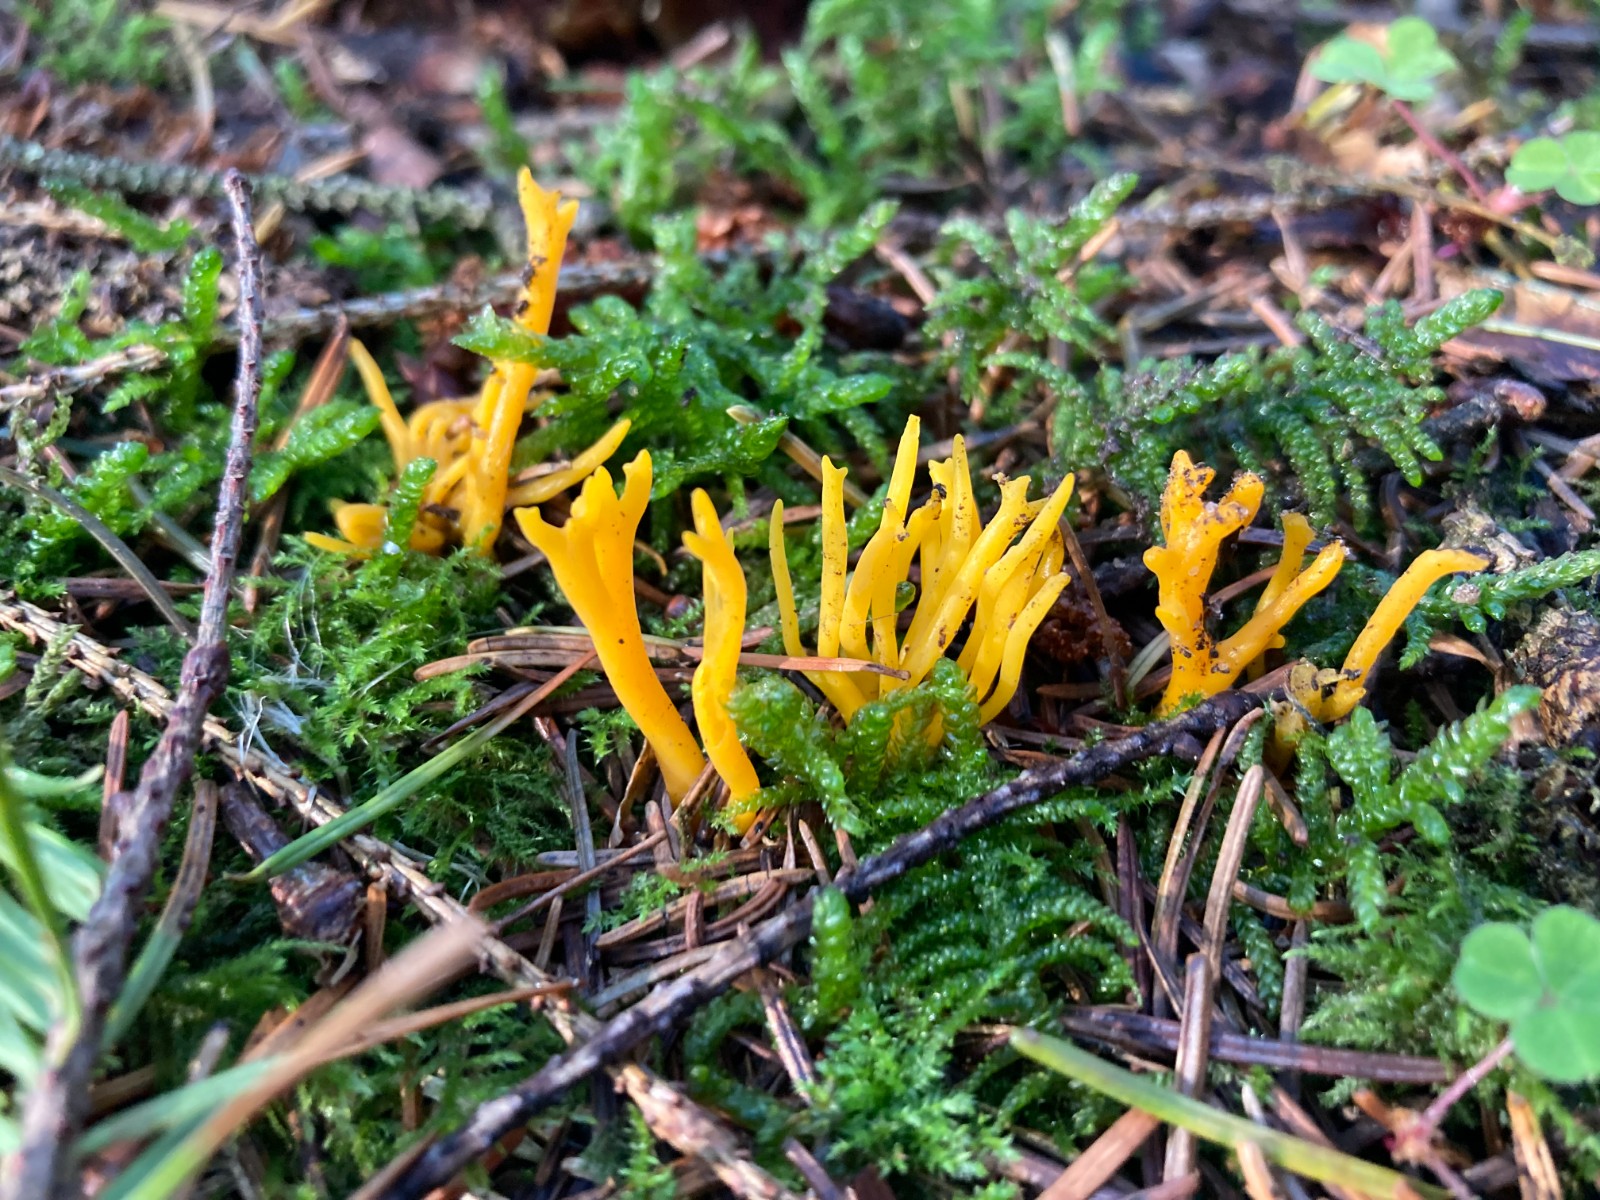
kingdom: Fungi
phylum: Basidiomycota
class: Dacrymycetes
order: Dacrymycetales
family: Dacrymycetaceae
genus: Calocera
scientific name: Calocera viscosa
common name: almindelig guldgaffel
